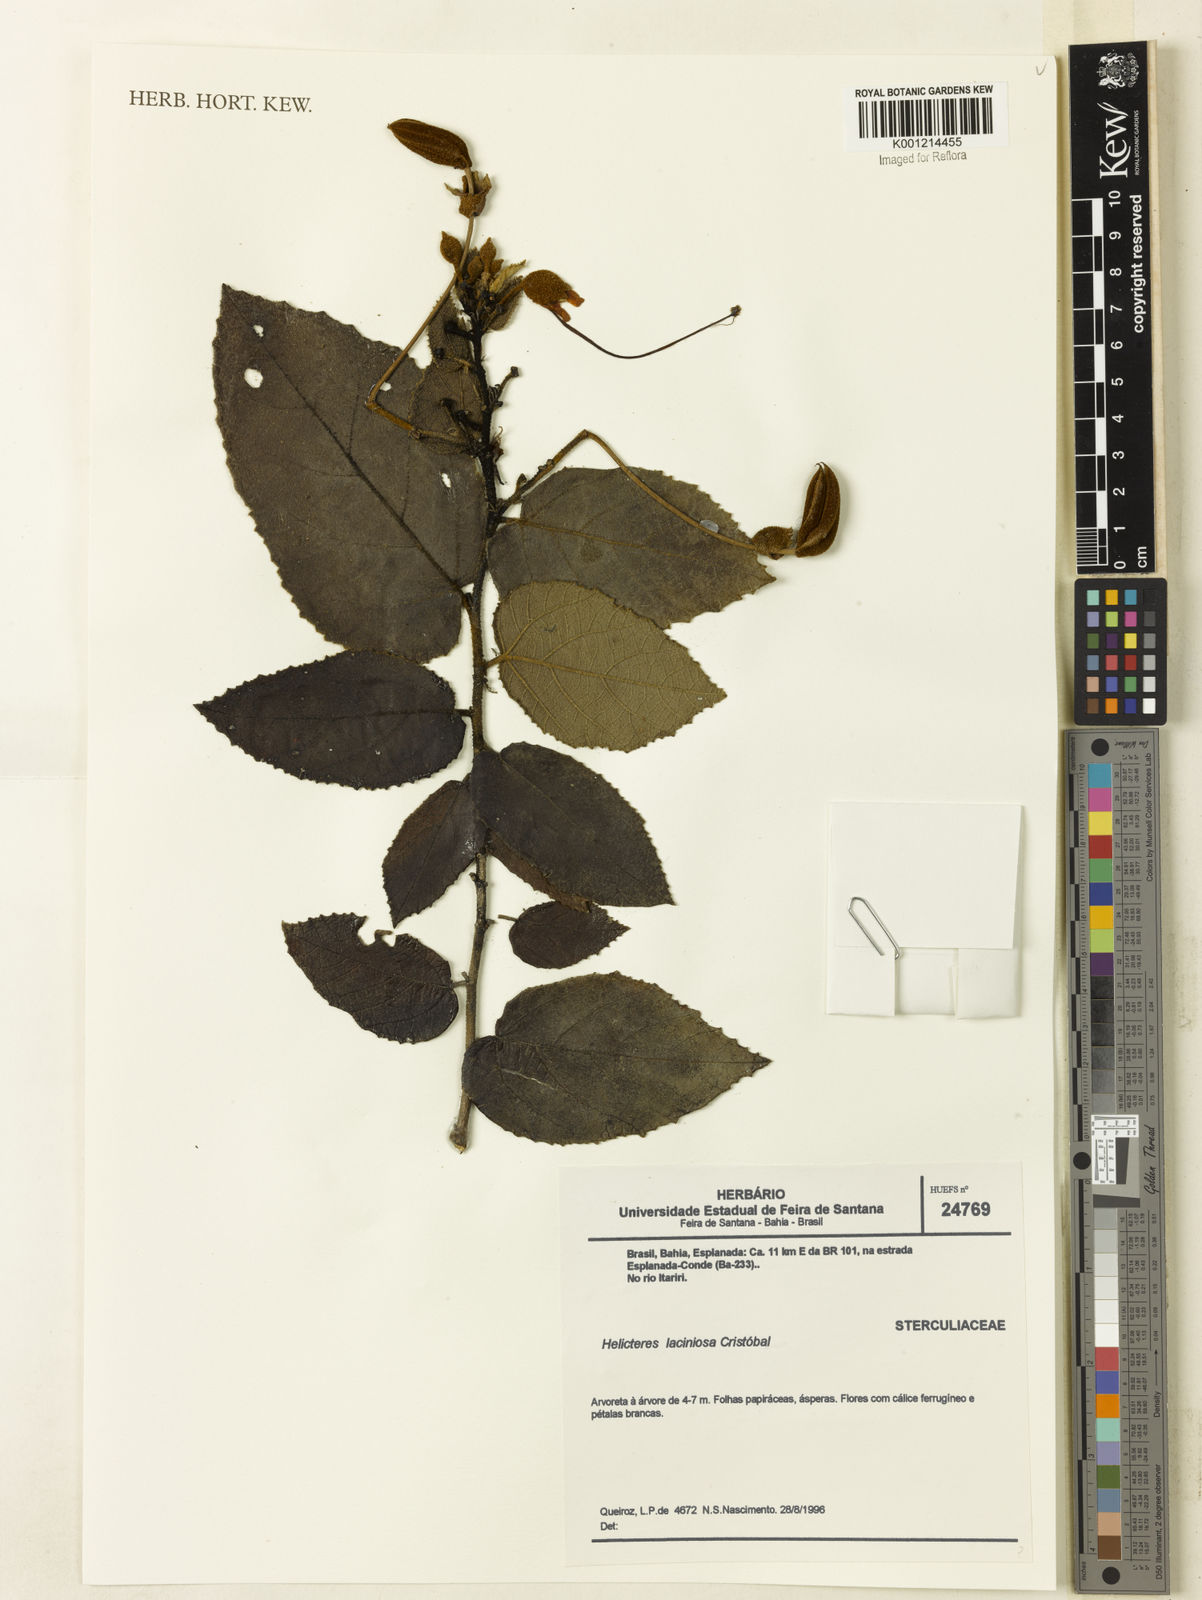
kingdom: Plantae
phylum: Tracheophyta
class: Magnoliopsida
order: Malvales
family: Malvaceae
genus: Helicteres
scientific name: Helicteres
